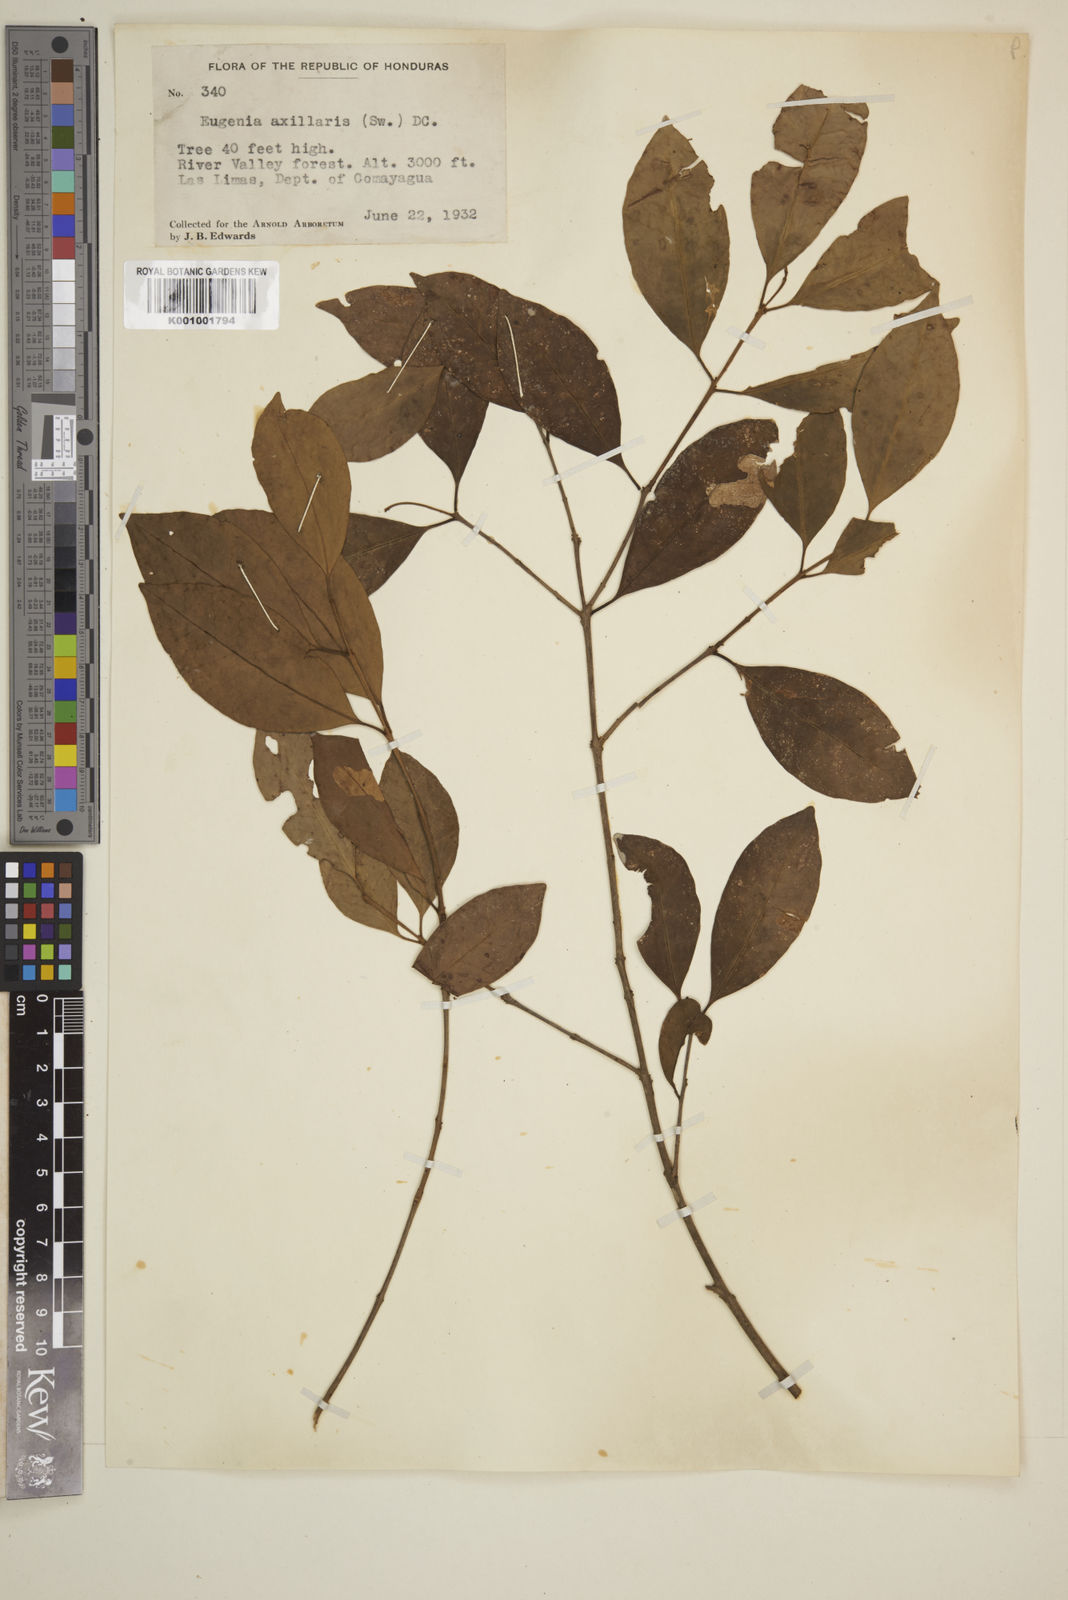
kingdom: Plantae
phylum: Tracheophyta
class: Magnoliopsida
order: Myrtales
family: Myrtaceae
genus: Eugenia
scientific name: Eugenia axillaris
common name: Choaky berry
